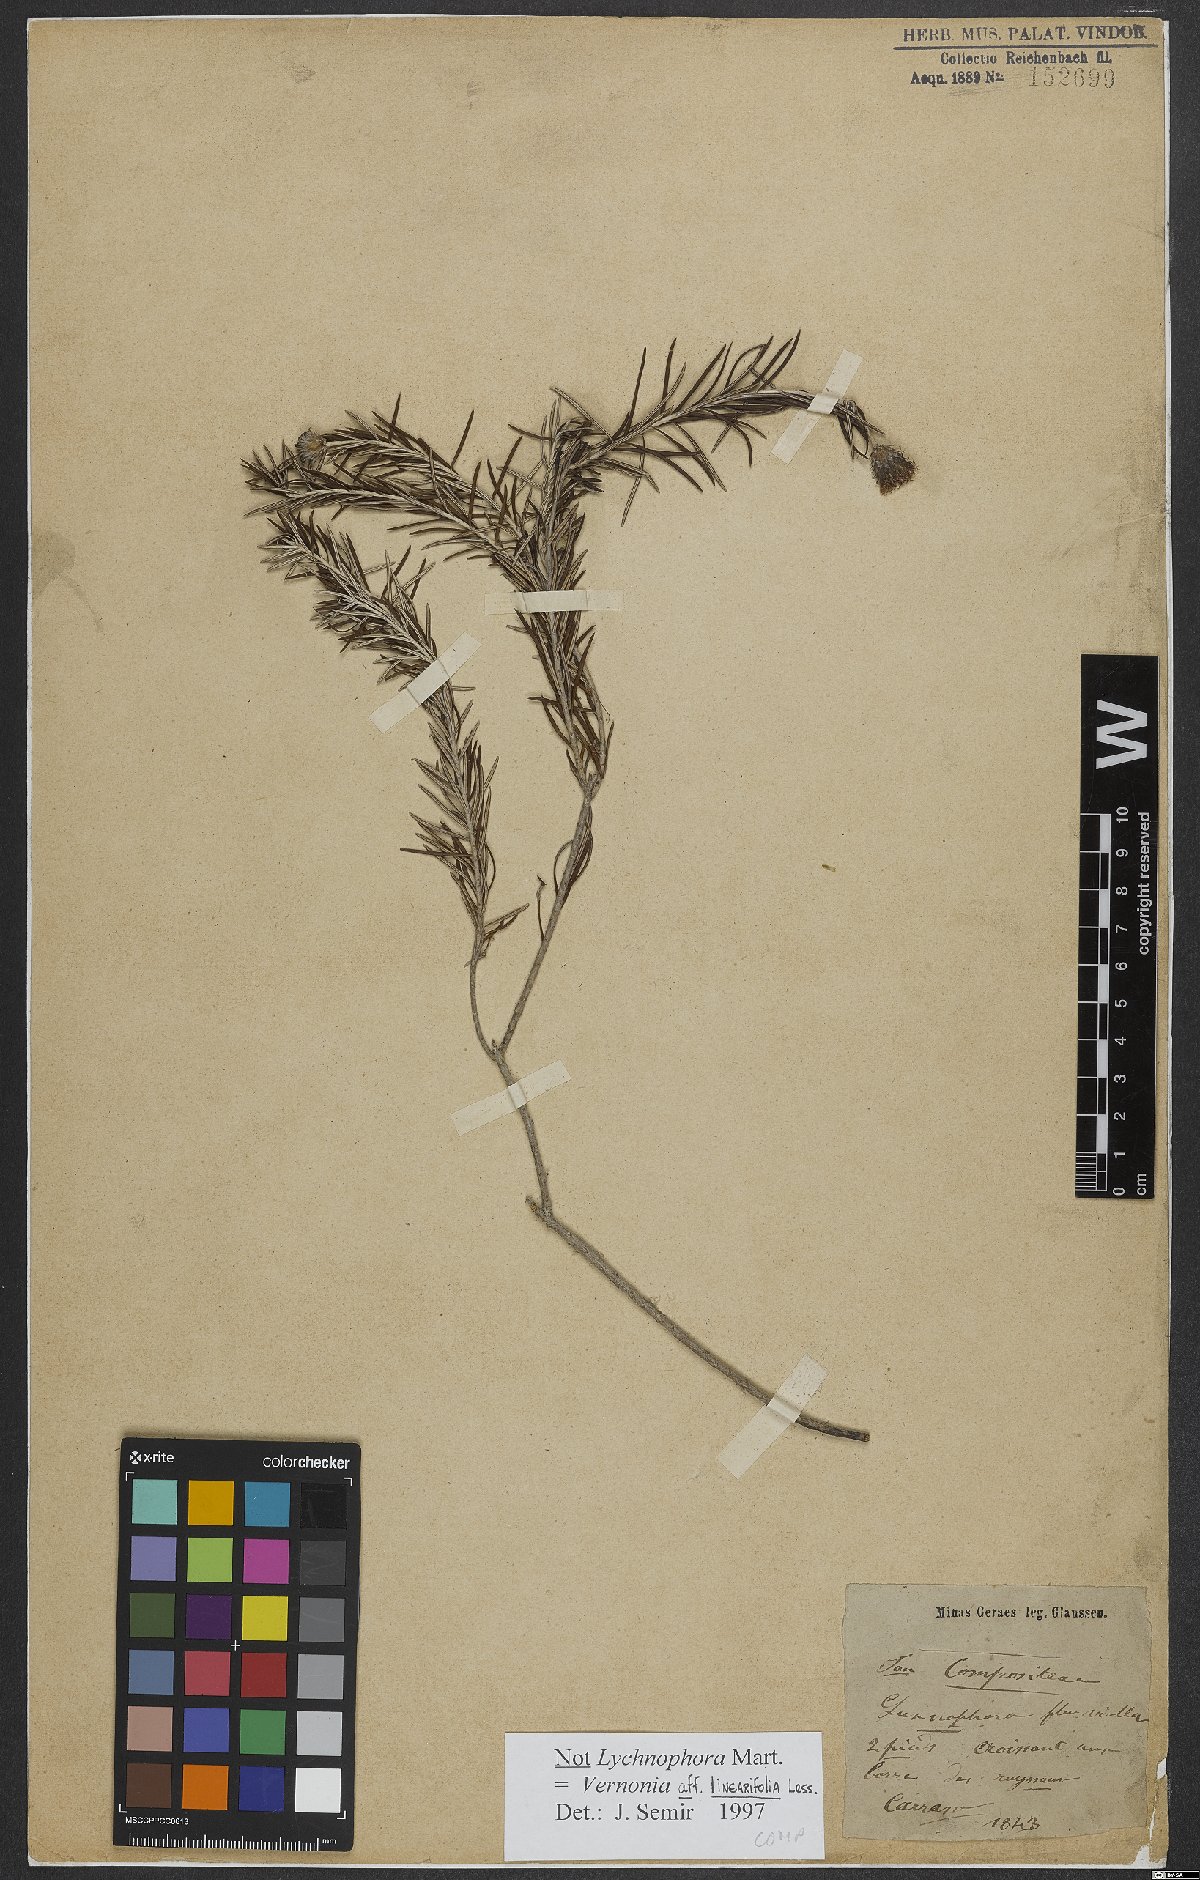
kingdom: Plantae
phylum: Tracheophyta
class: Magnoliopsida
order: Asterales
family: Asteraceae
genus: Lessingianthus
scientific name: Lessingianthus linearifolius
